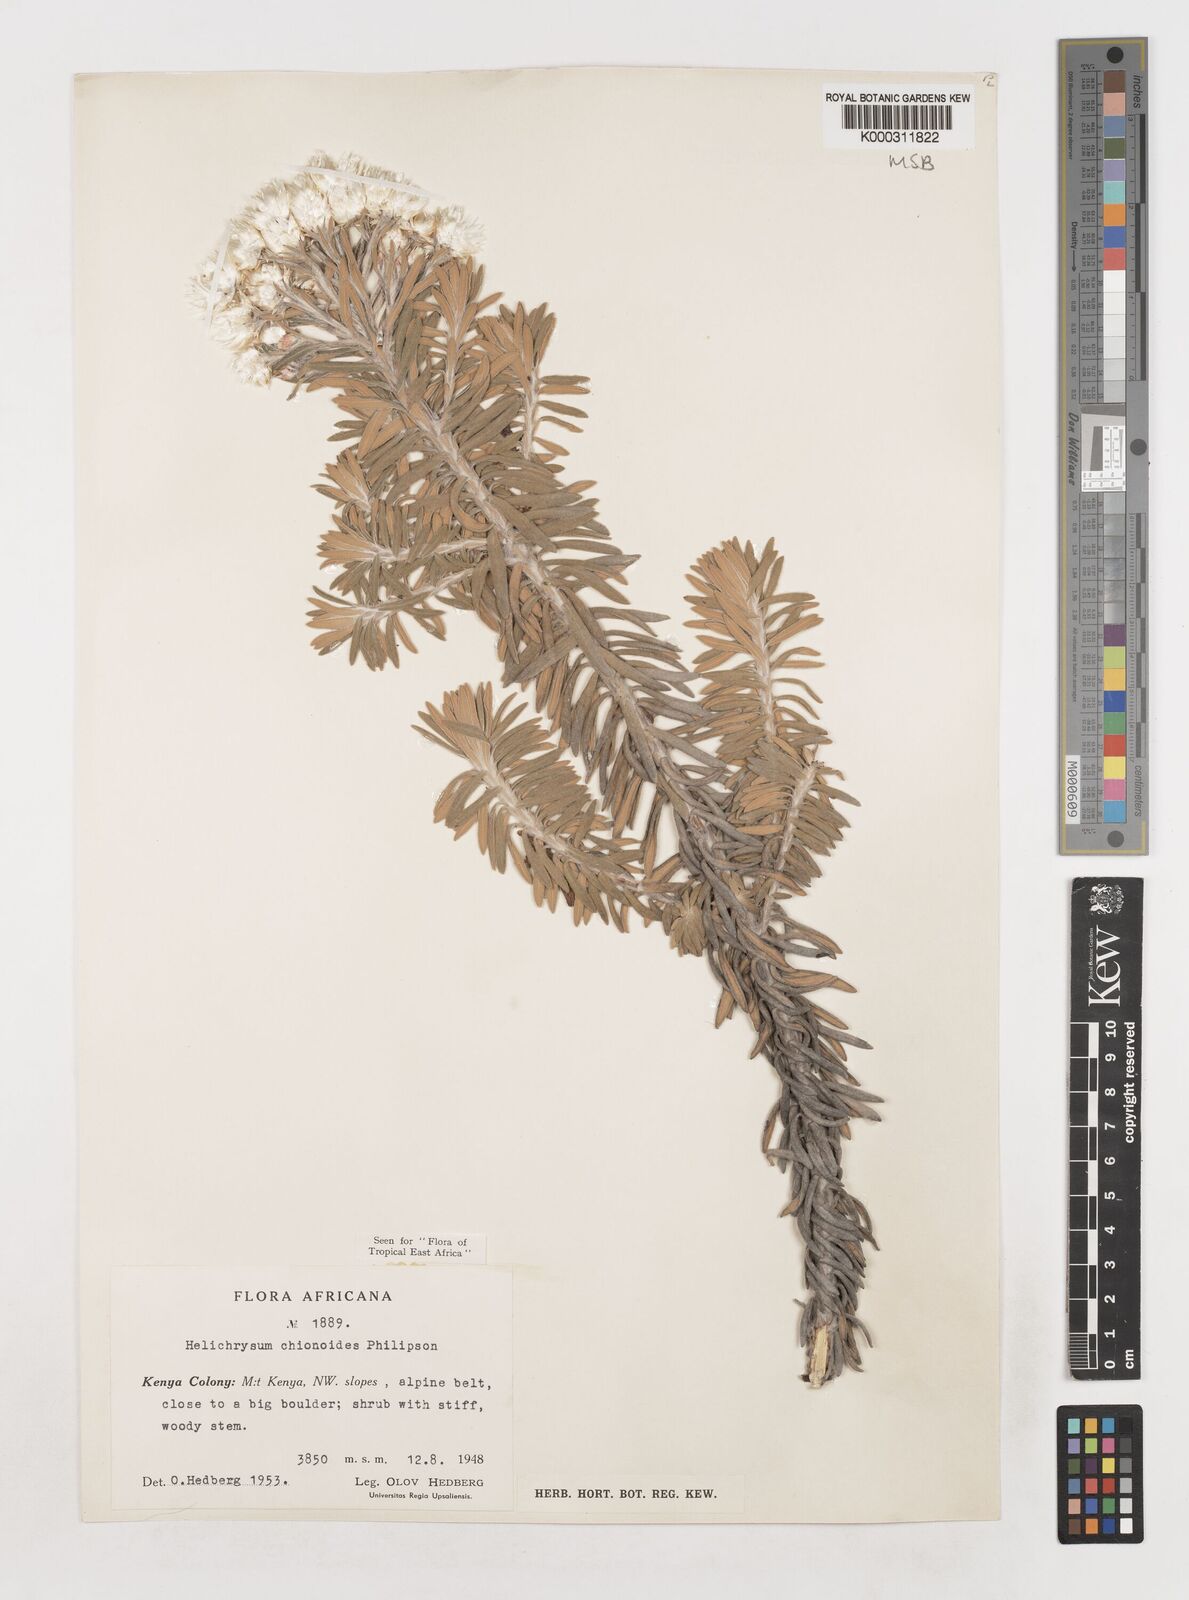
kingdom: Plantae
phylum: Tracheophyta
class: Magnoliopsida
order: Asterales
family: Asteraceae
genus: Helichrysum
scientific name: Helichrysum chionoides
